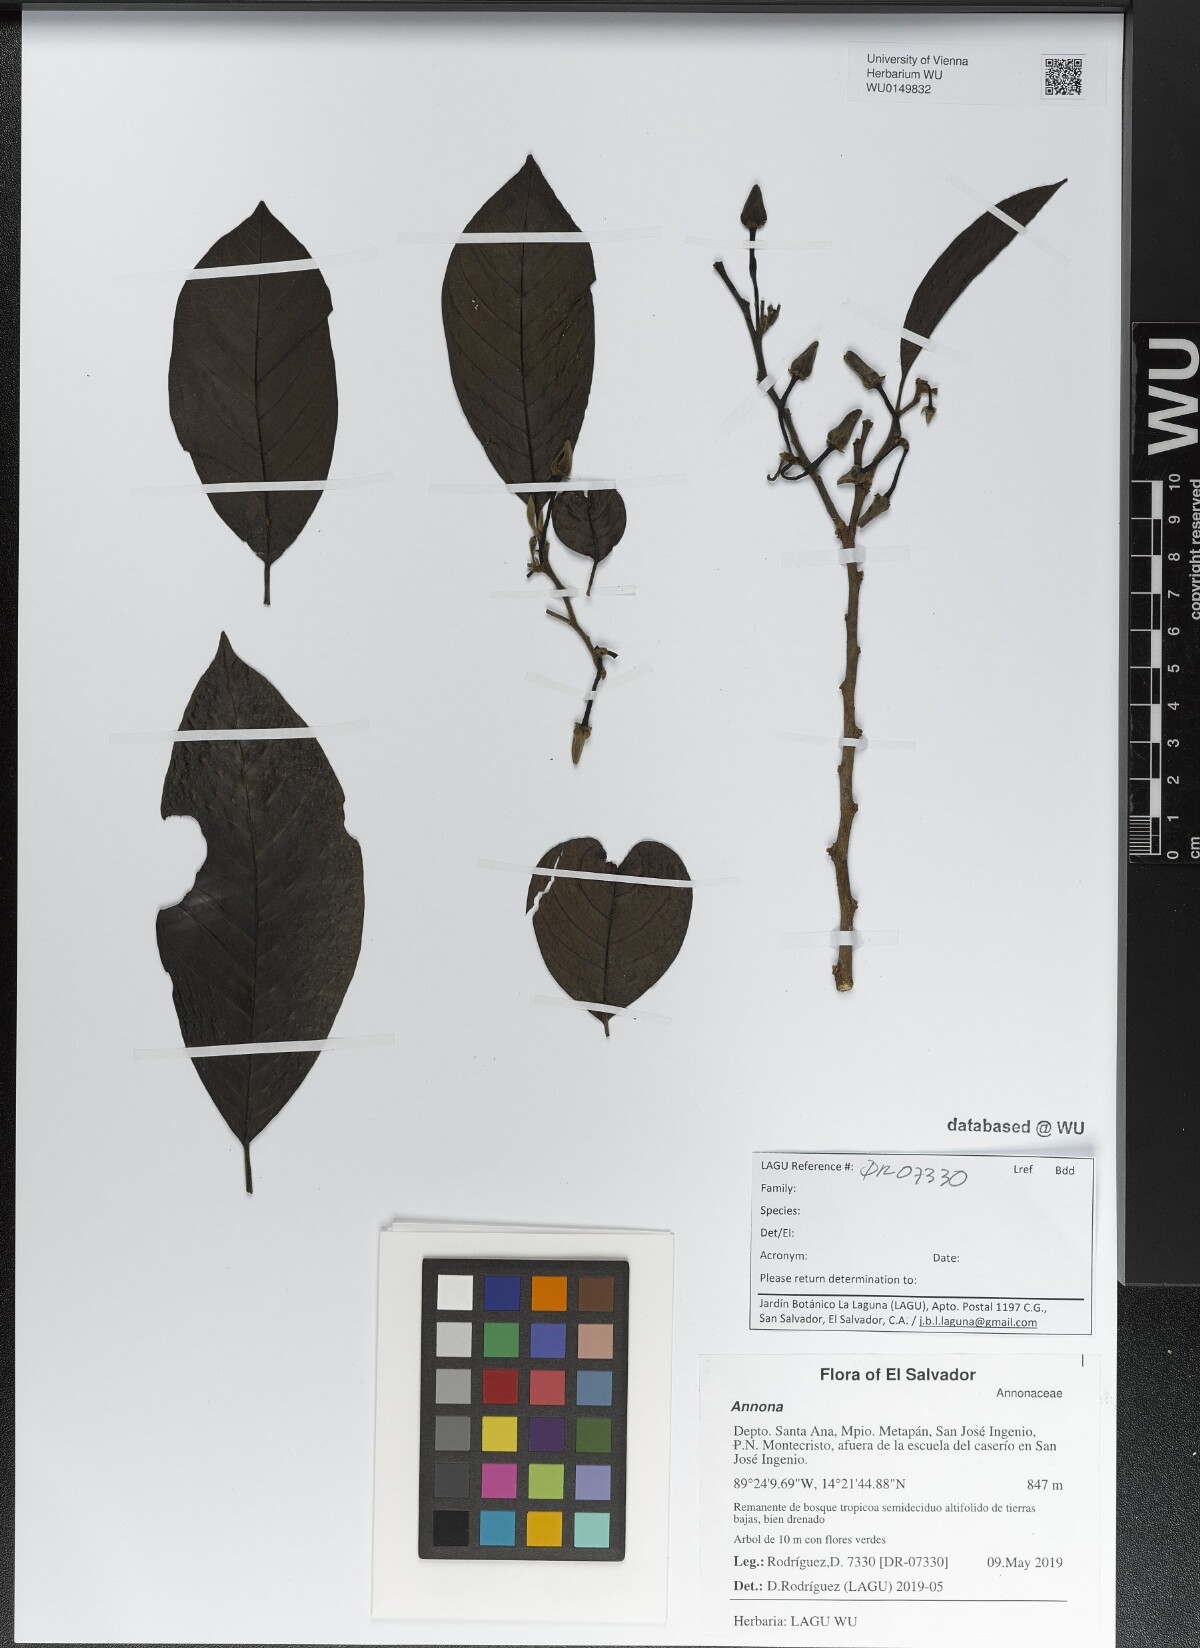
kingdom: Plantae
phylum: Tracheophyta
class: Magnoliopsida
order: Magnoliales
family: Annonaceae
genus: Annona
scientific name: Annona
